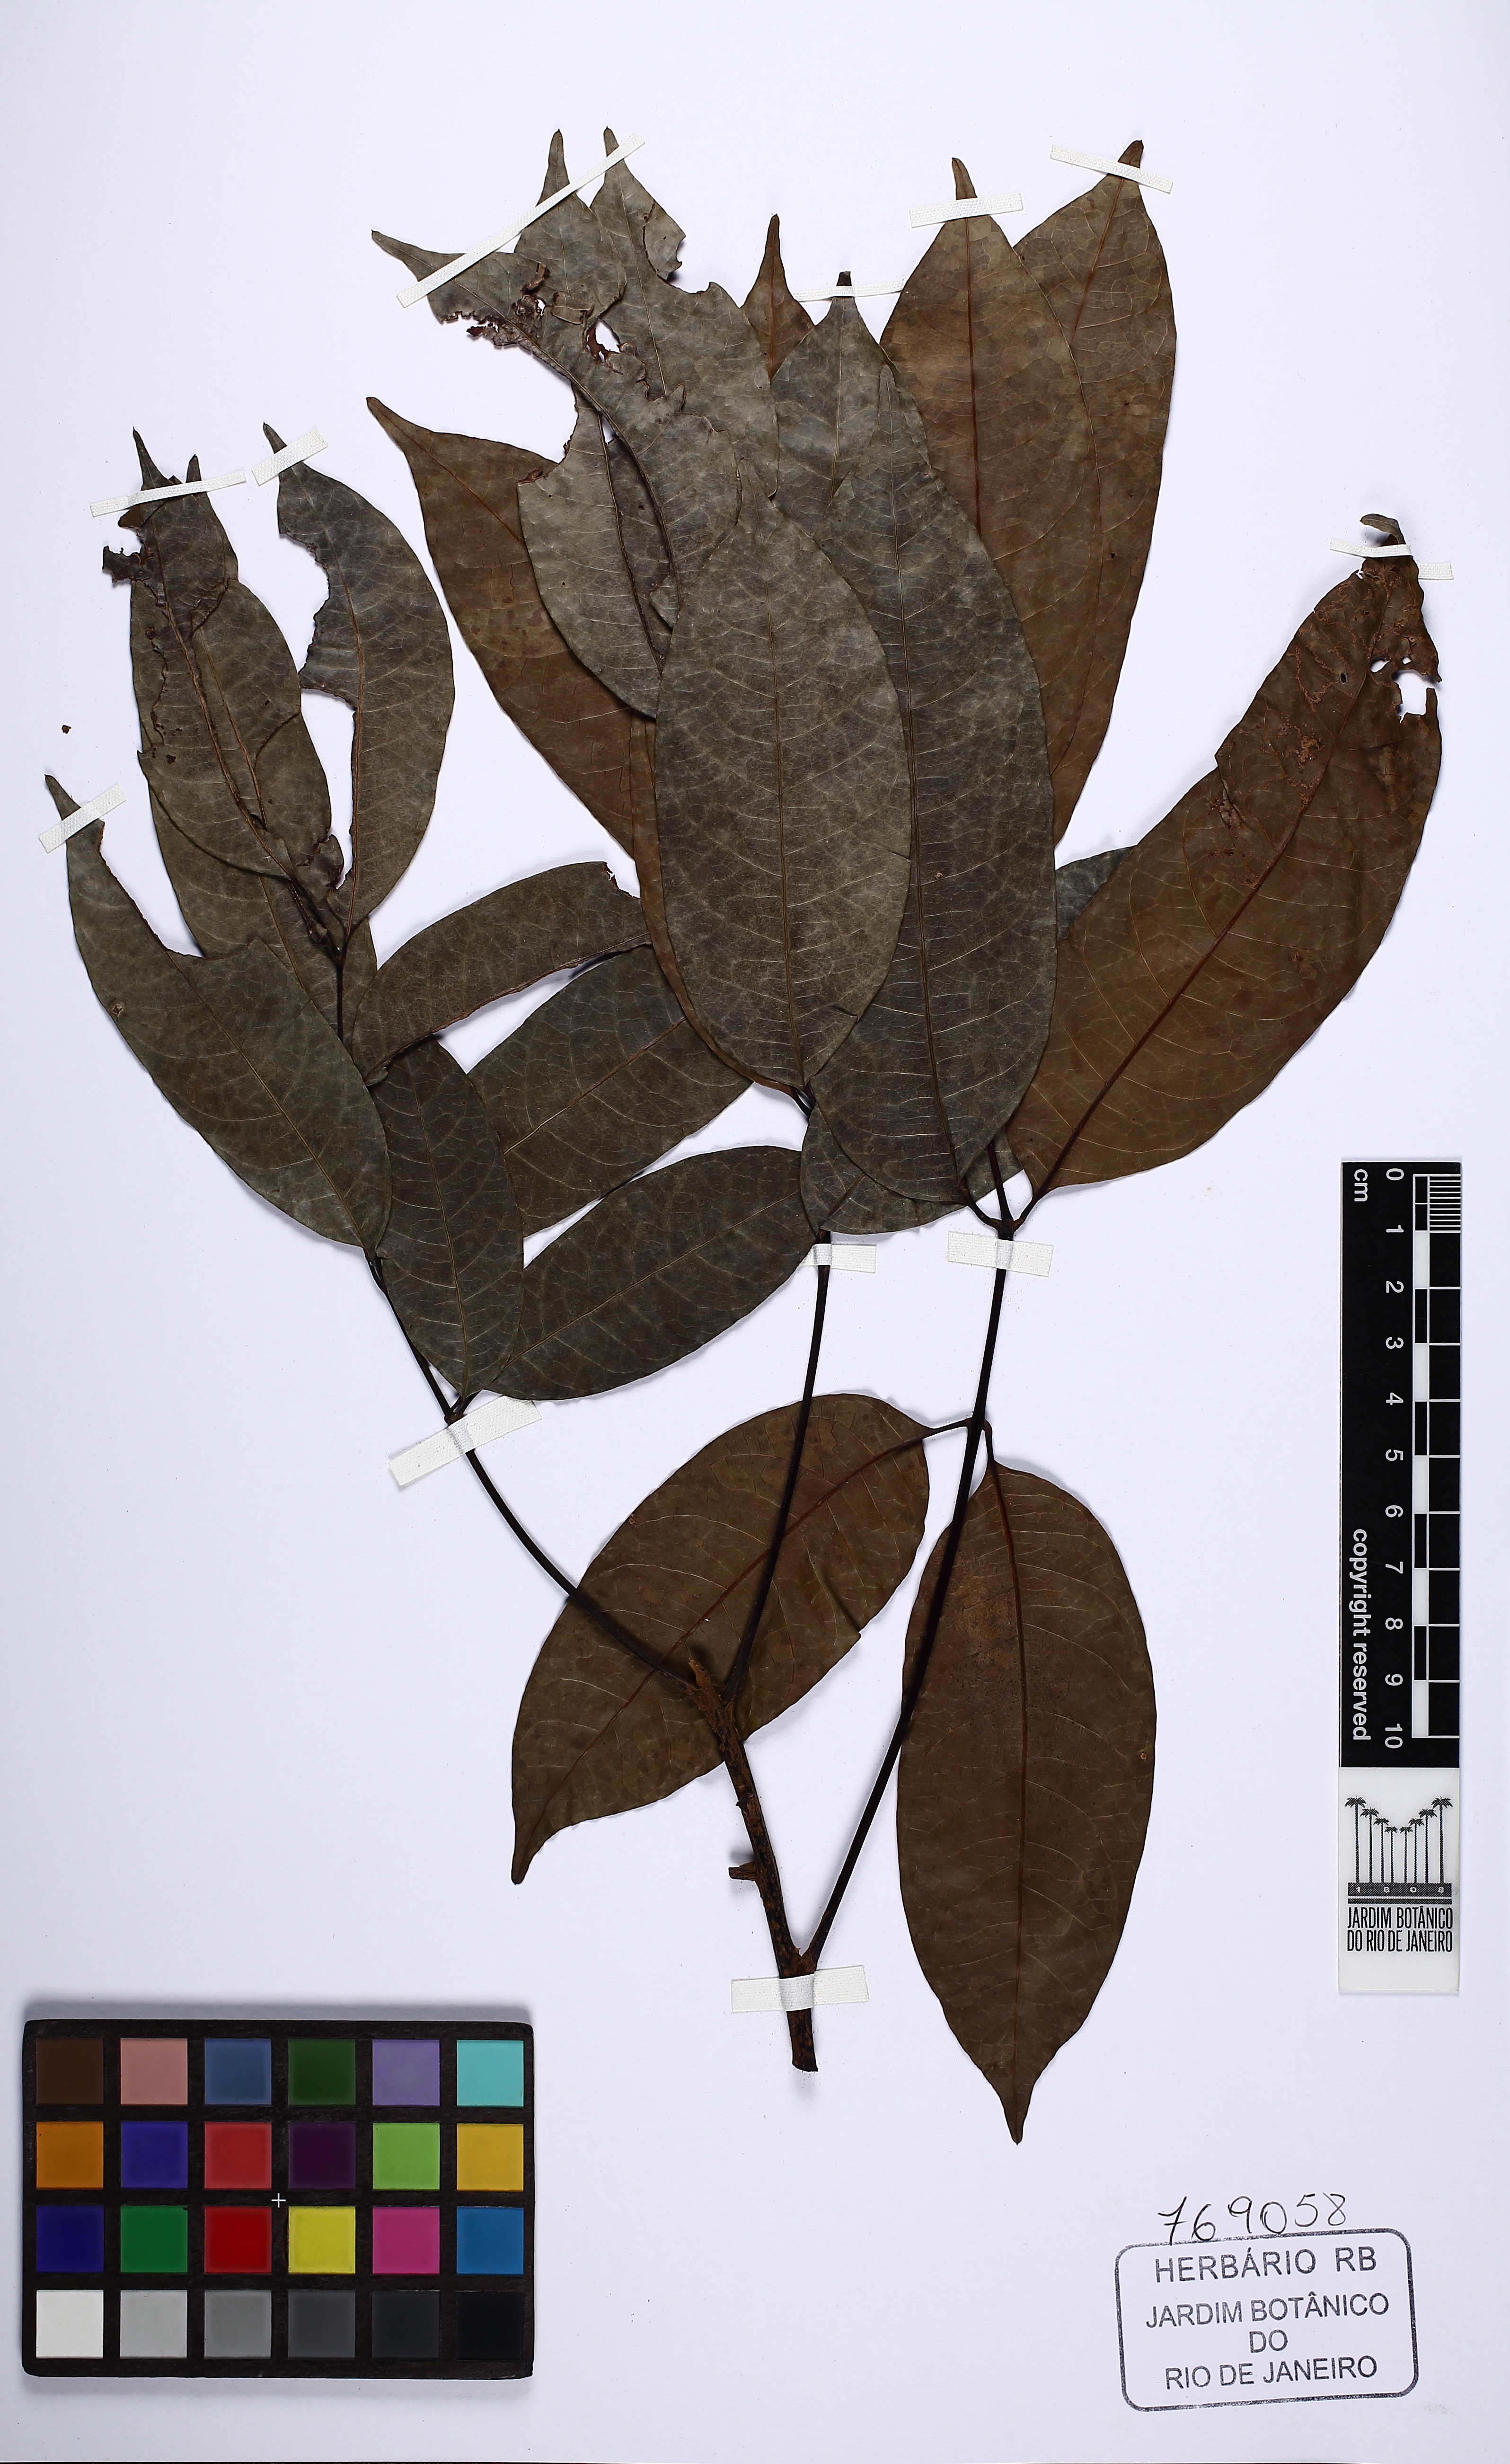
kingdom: Plantae
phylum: Tracheophyta
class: Magnoliopsida
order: Sapindales
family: Burseraceae
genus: Tetragastris
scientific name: Tetragastris panamensis
